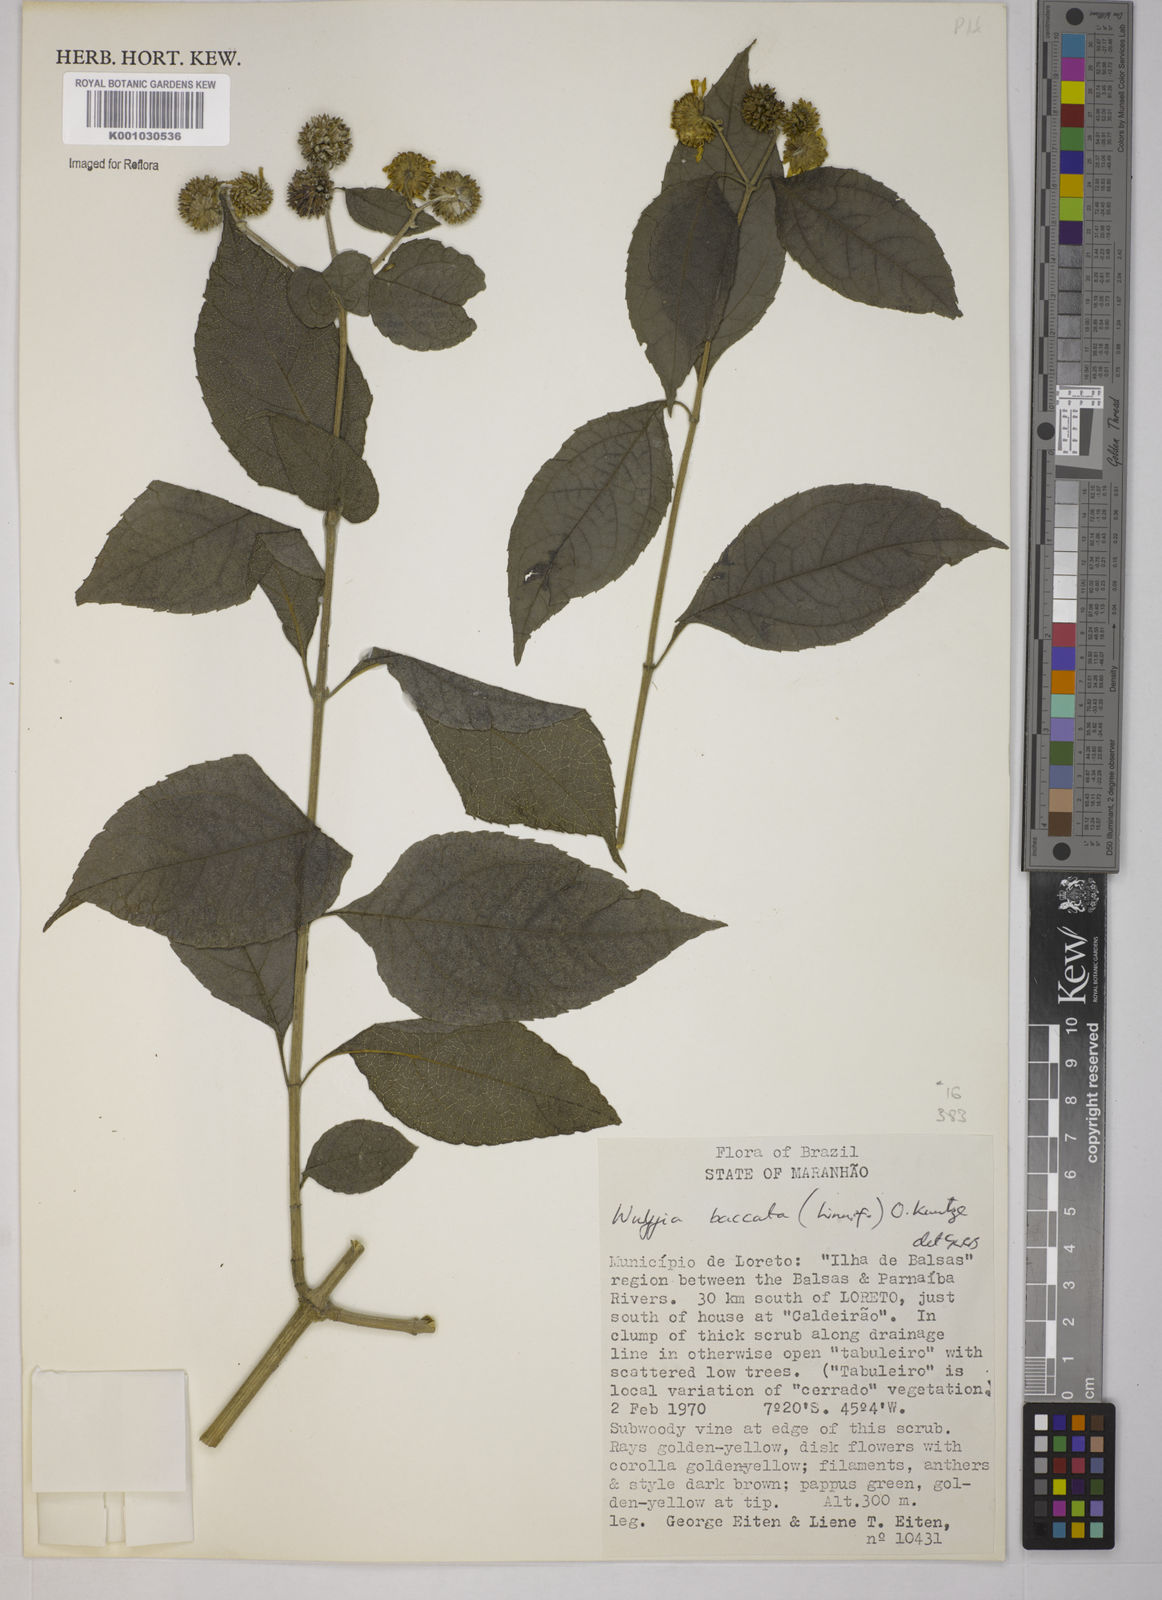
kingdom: Plantae
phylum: Tracheophyta
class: Magnoliopsida
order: Asterales
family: Asteraceae
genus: Tilesia
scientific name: Tilesia baccata
